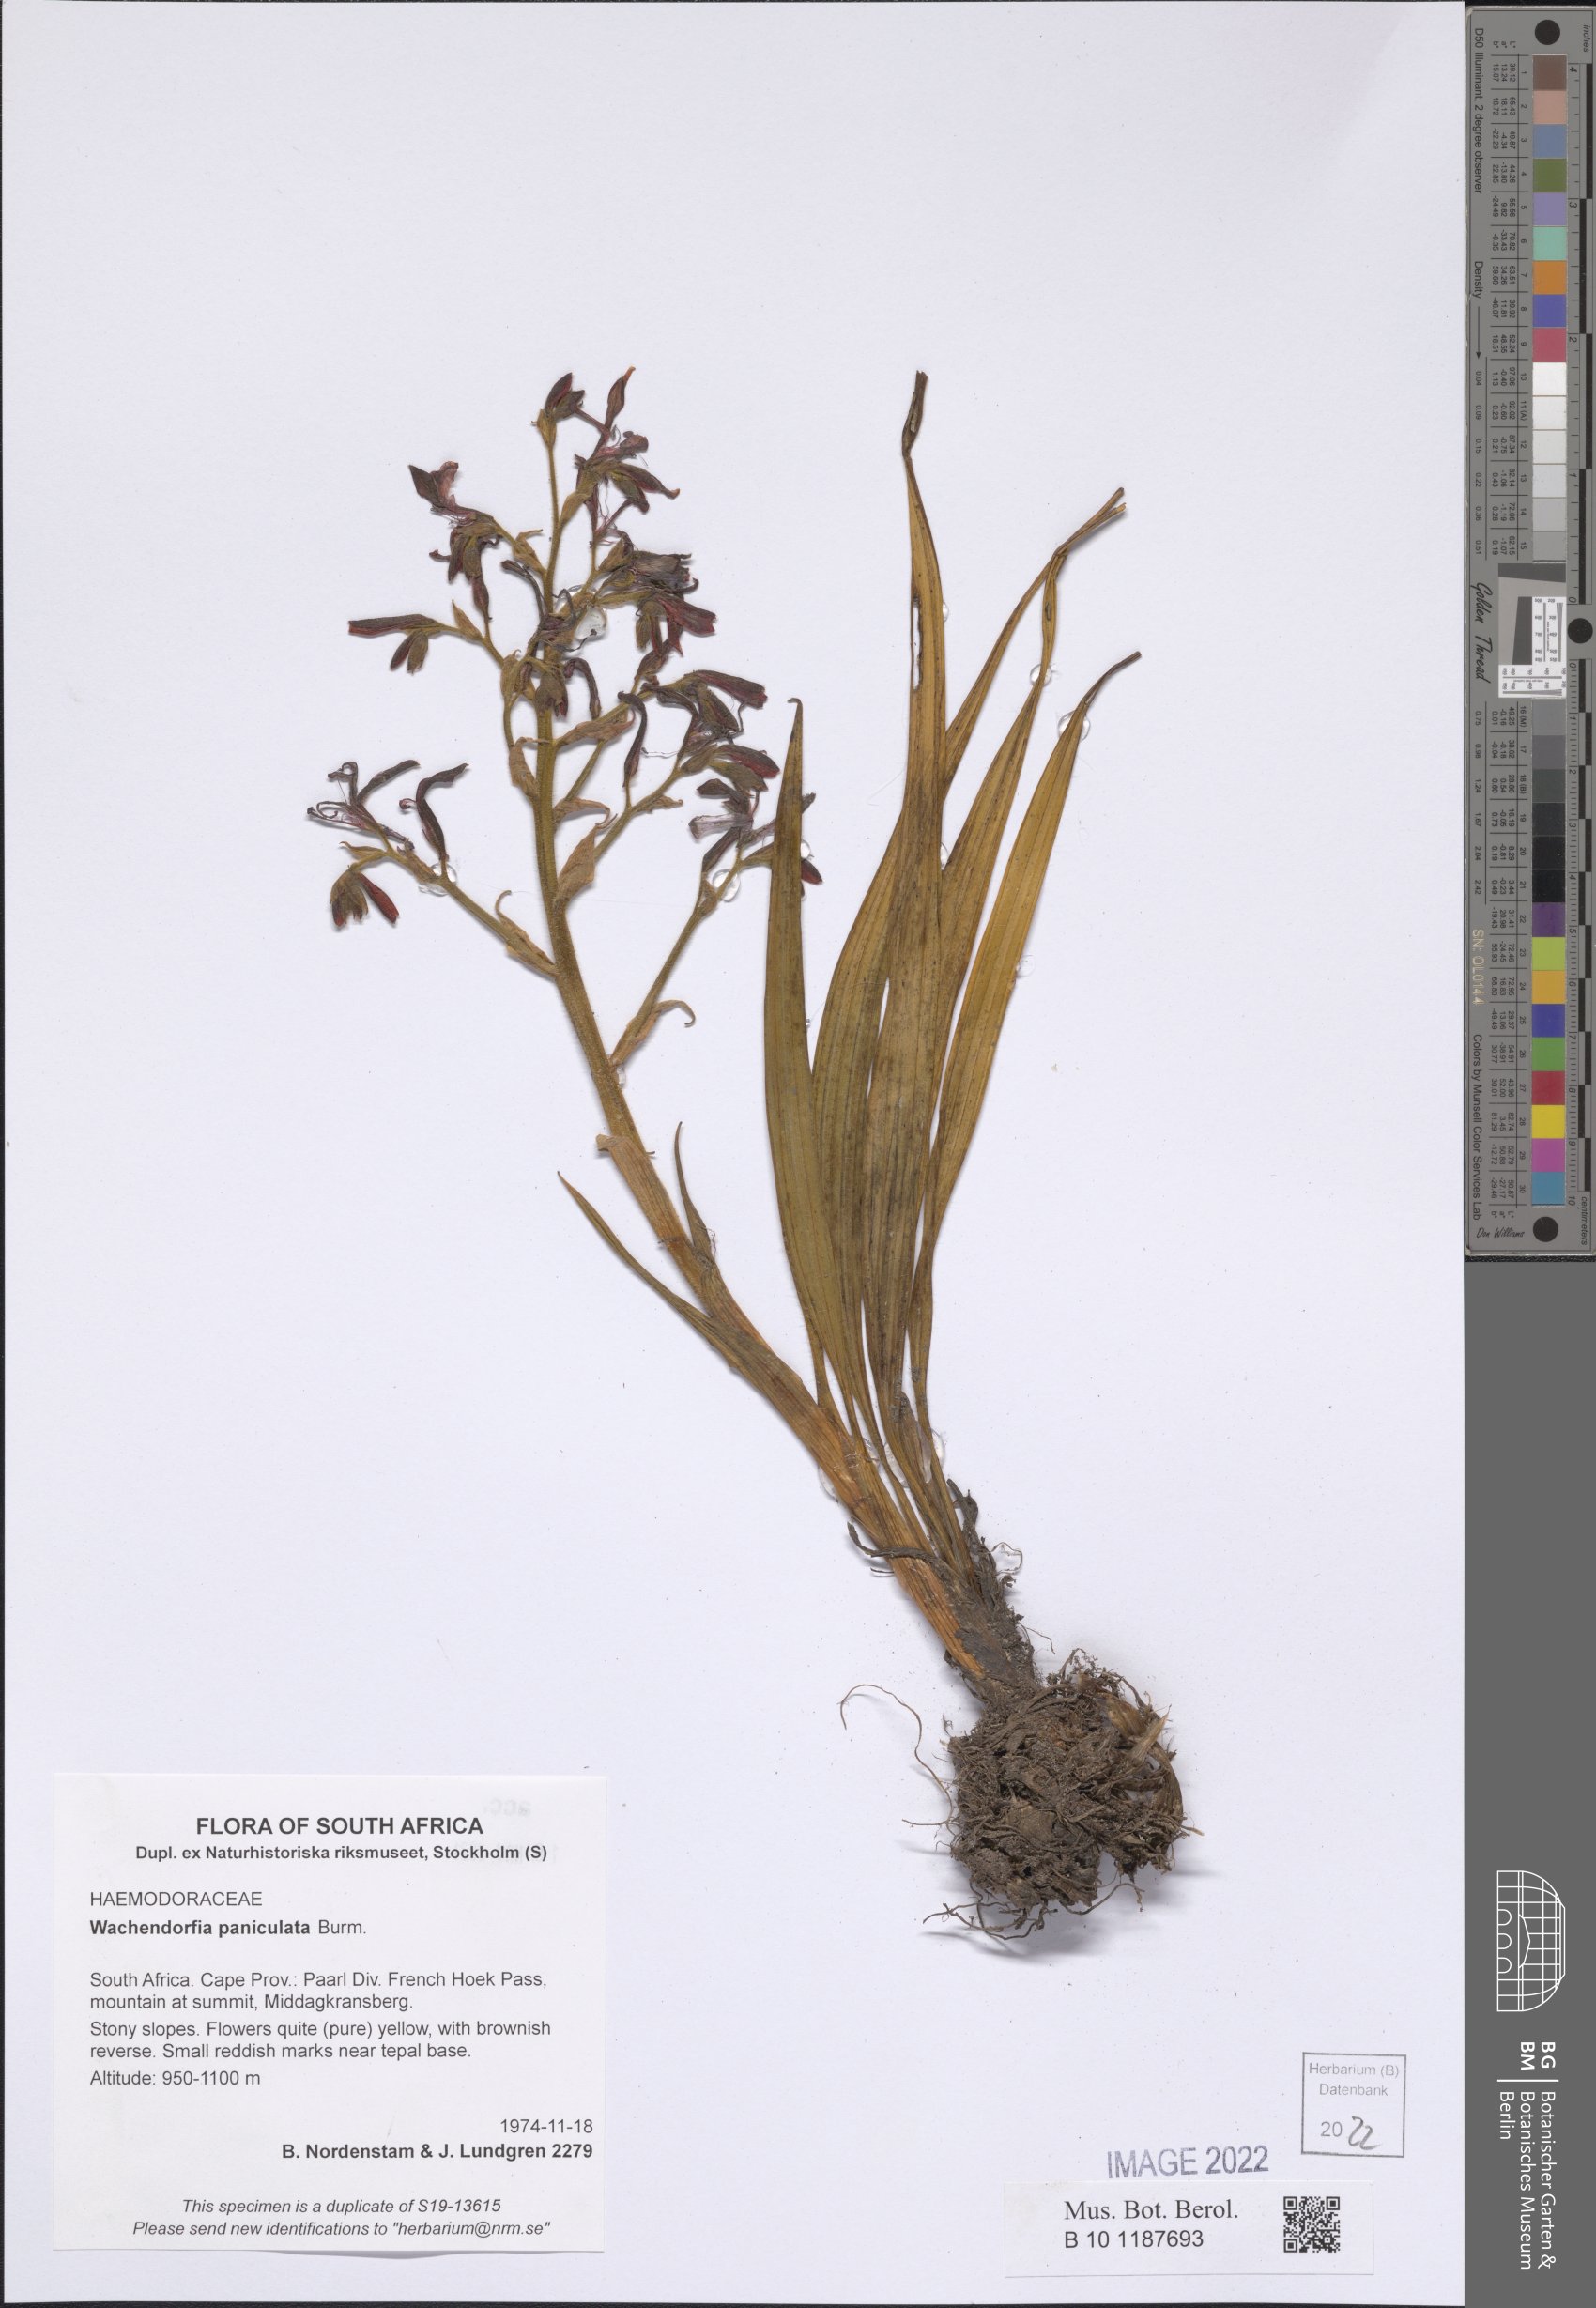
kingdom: Plantae
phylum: Tracheophyta
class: Liliopsida
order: Commelinales
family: Haemodoraceae
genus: Wachendorfia
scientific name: Wachendorfia paniculata
